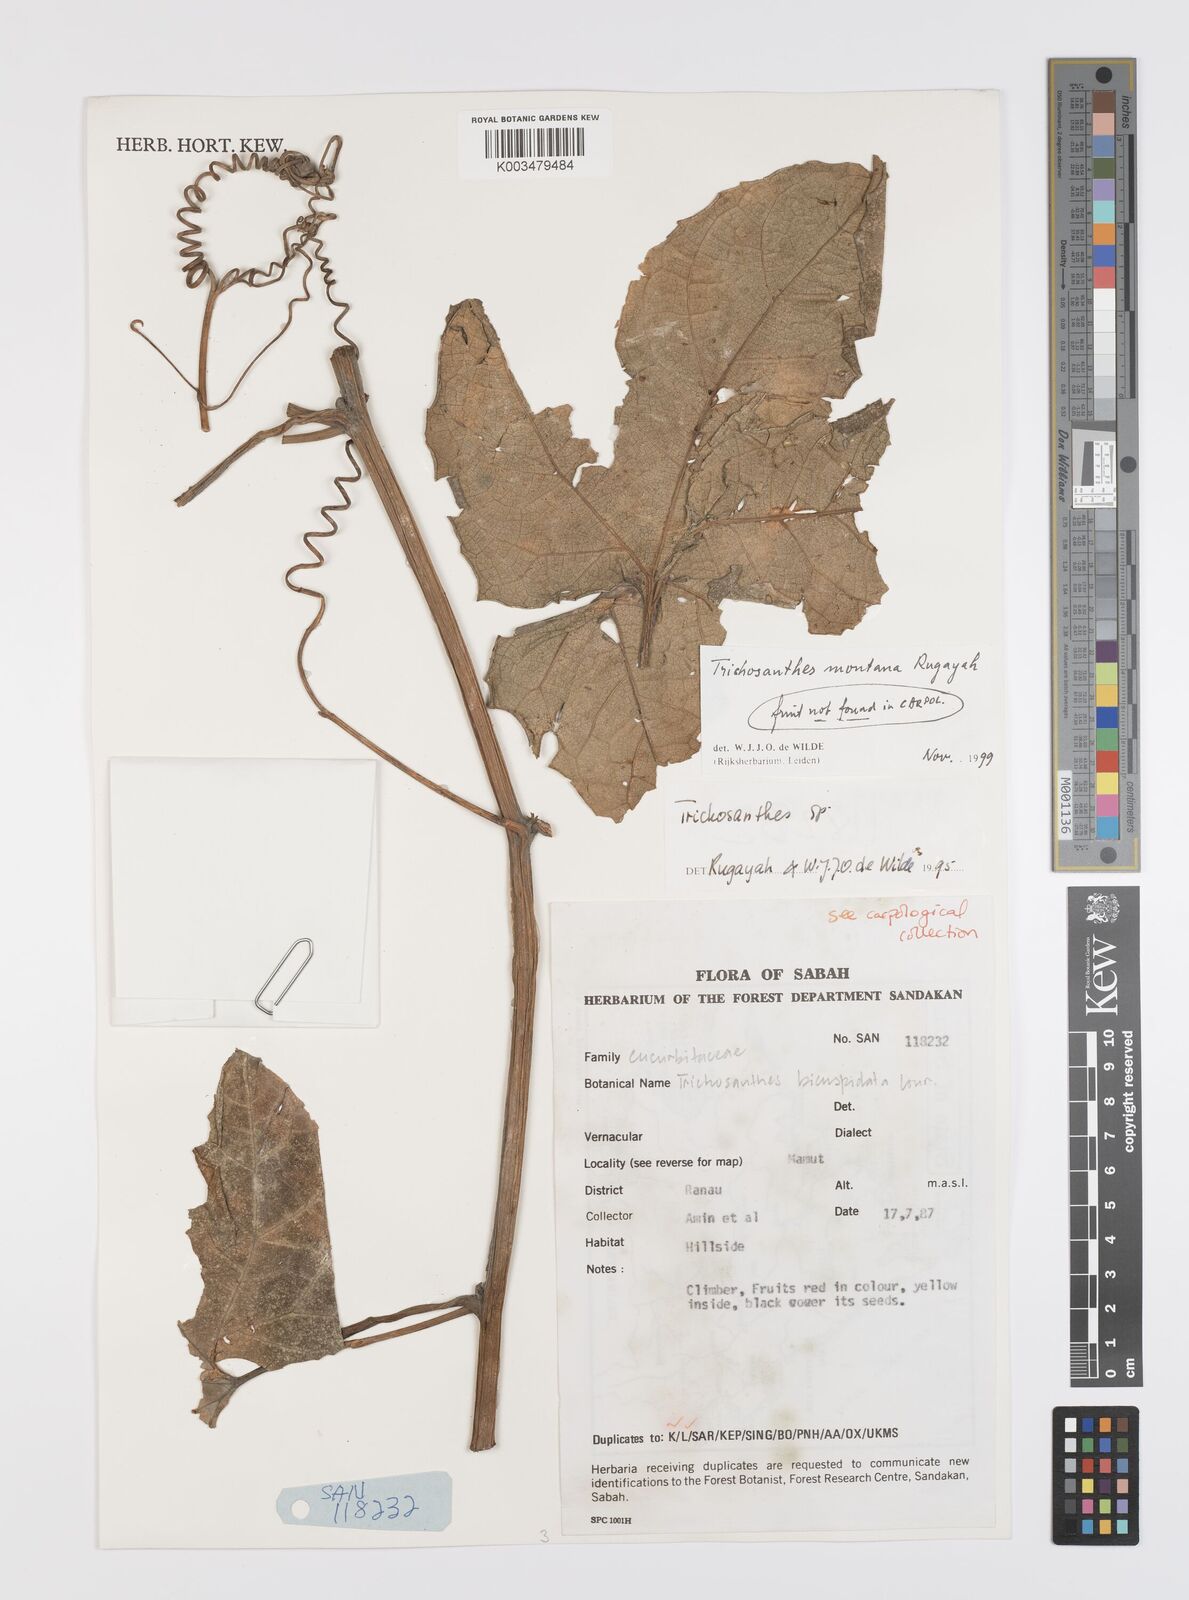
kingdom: Plantae
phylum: Tracheophyta
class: Magnoliopsida
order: Cucurbitales
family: Cucurbitaceae
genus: Trichosanthes
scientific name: Trichosanthes montana
